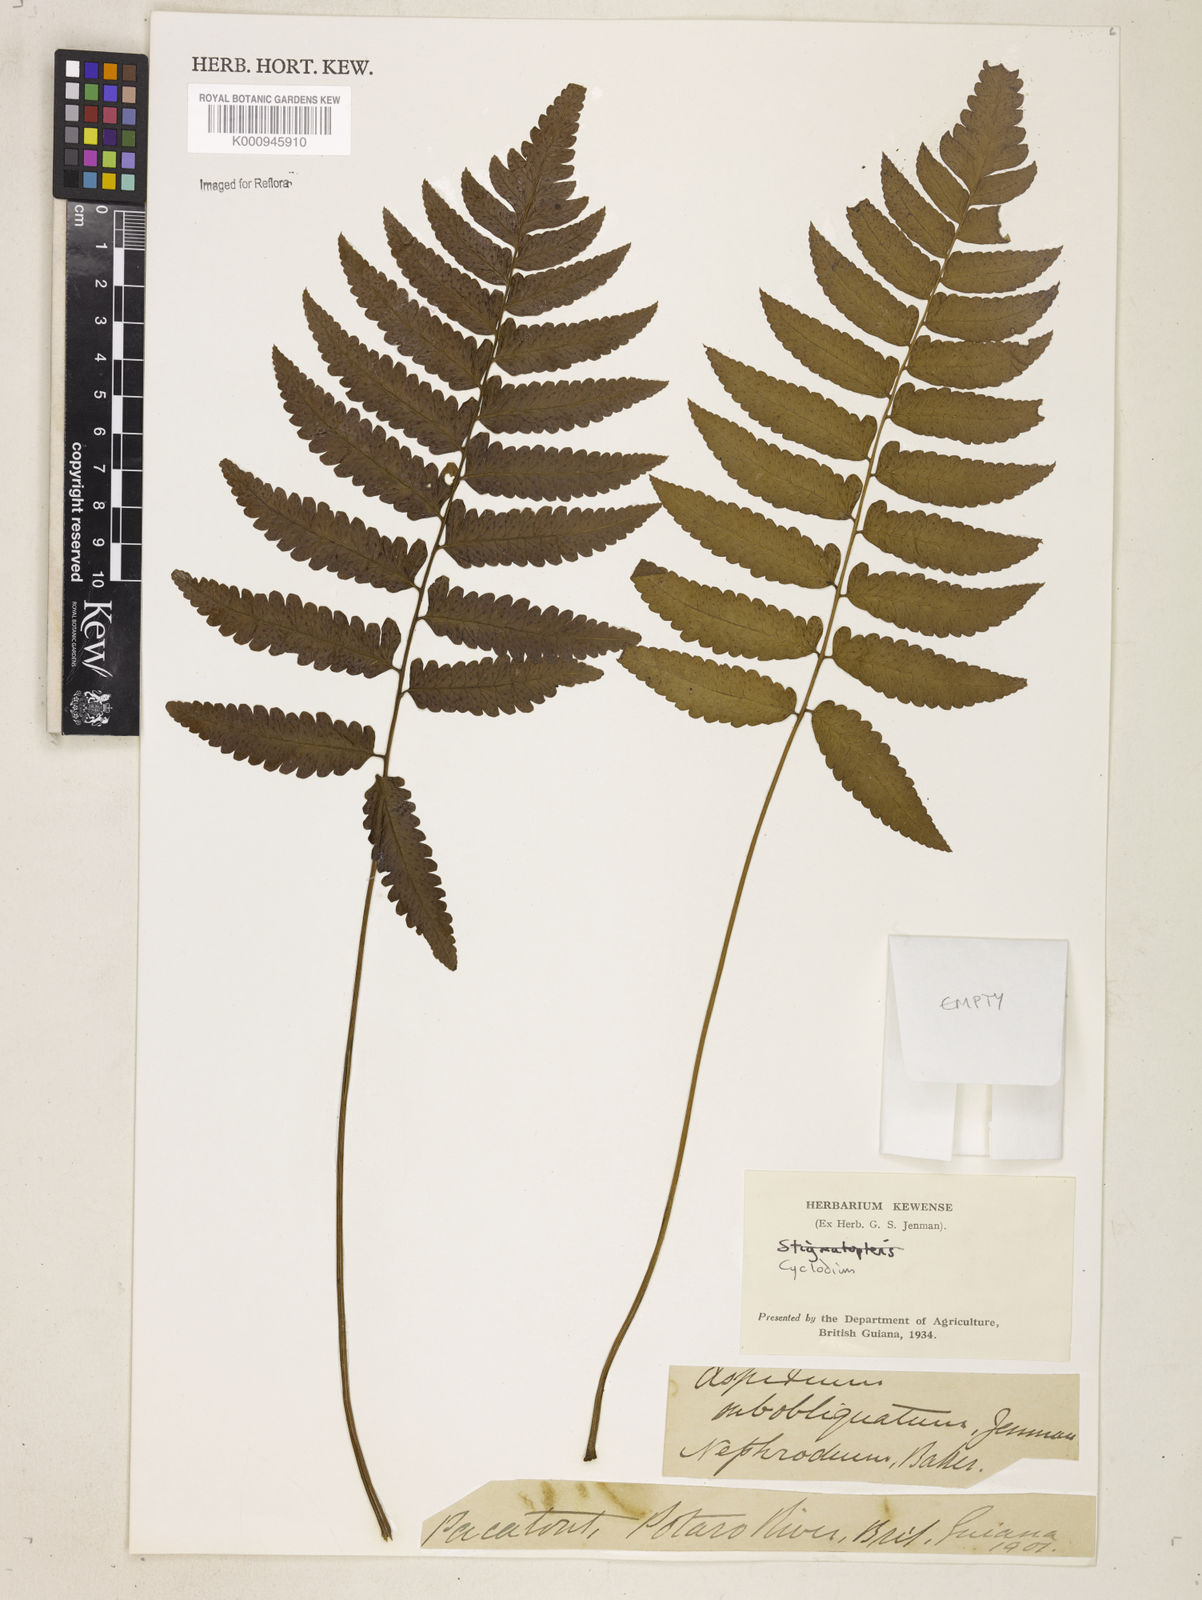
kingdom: Plantae
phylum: Tracheophyta
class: Polypodiopsida
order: Polypodiales
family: Dryopteridaceae
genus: Cyclodium
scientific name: Cyclodium
